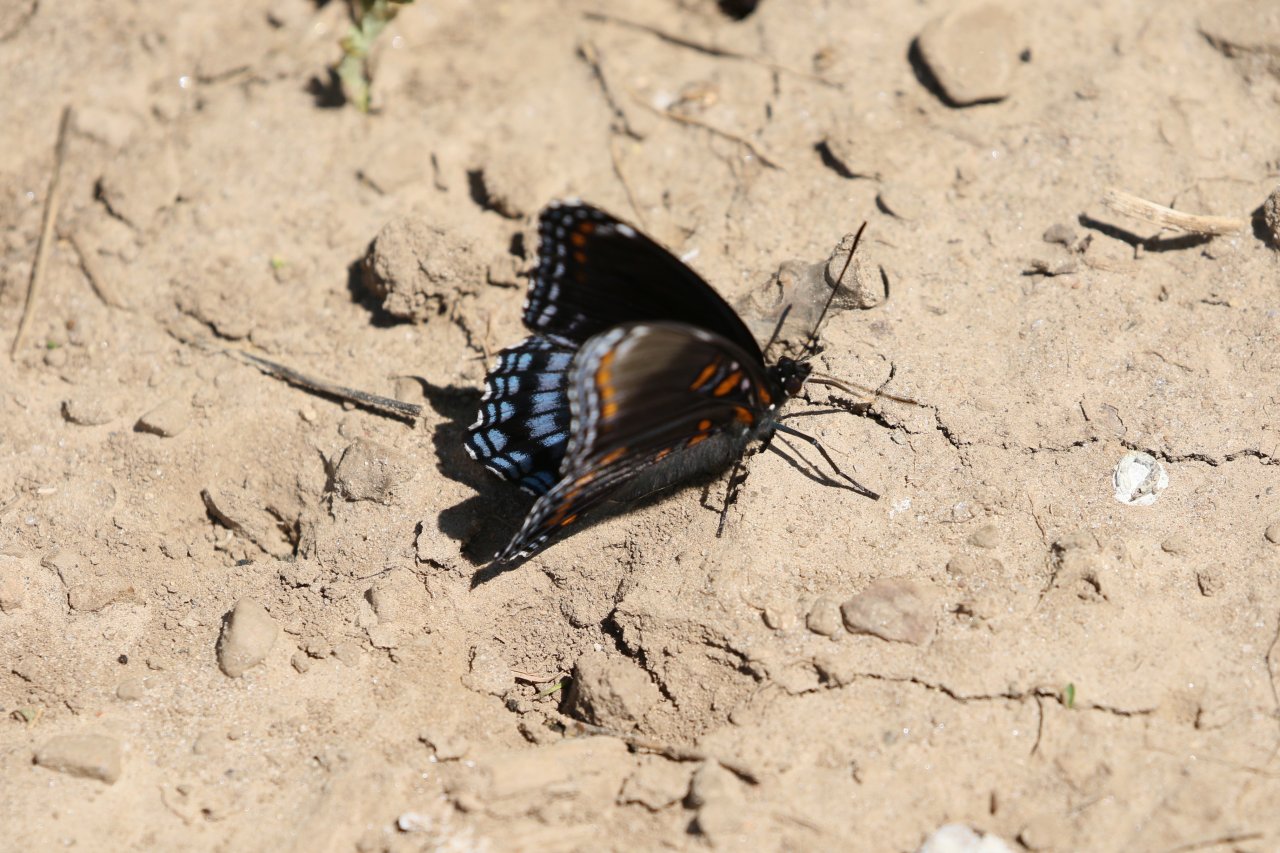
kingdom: Animalia
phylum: Arthropoda
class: Insecta
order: Lepidoptera
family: Nymphalidae
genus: Limenitis
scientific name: Limenitis astyanax
